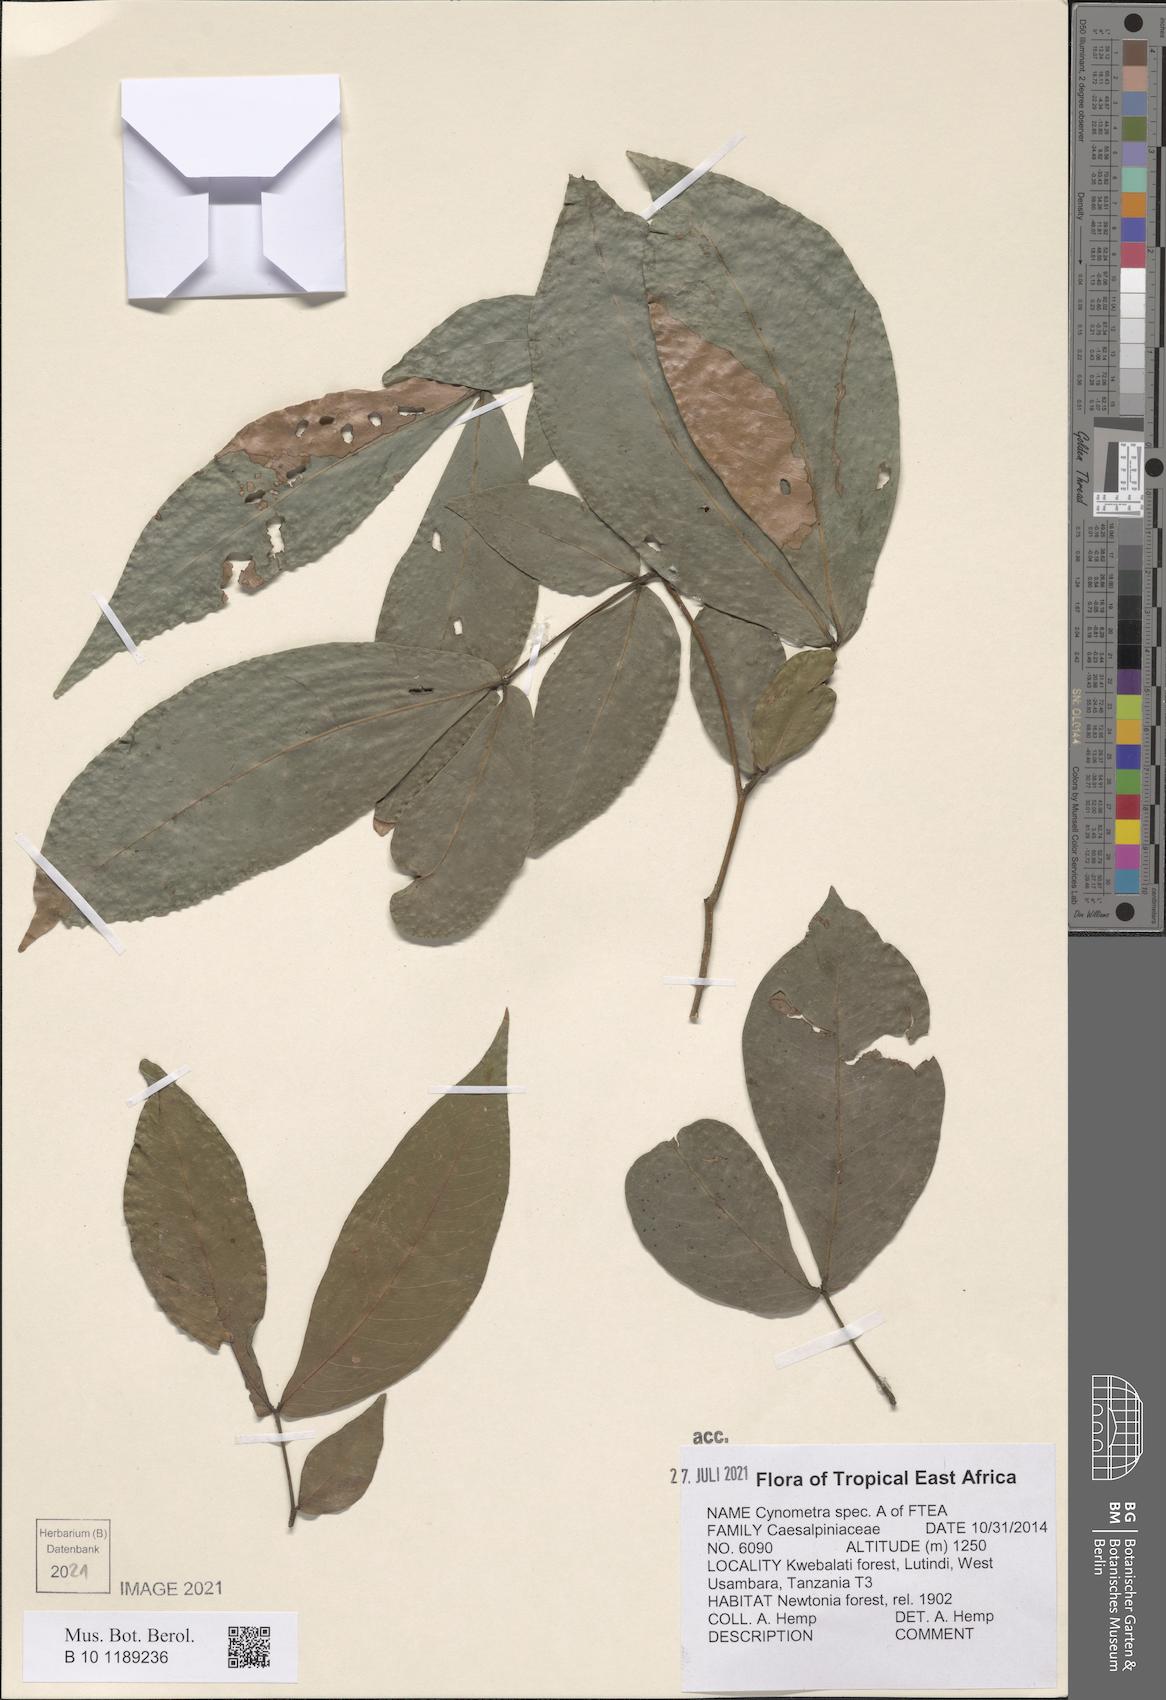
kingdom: Plantae
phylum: Tracheophyta
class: Magnoliopsida
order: Fabales
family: Fabaceae
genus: Cynometra
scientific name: Cynometra
